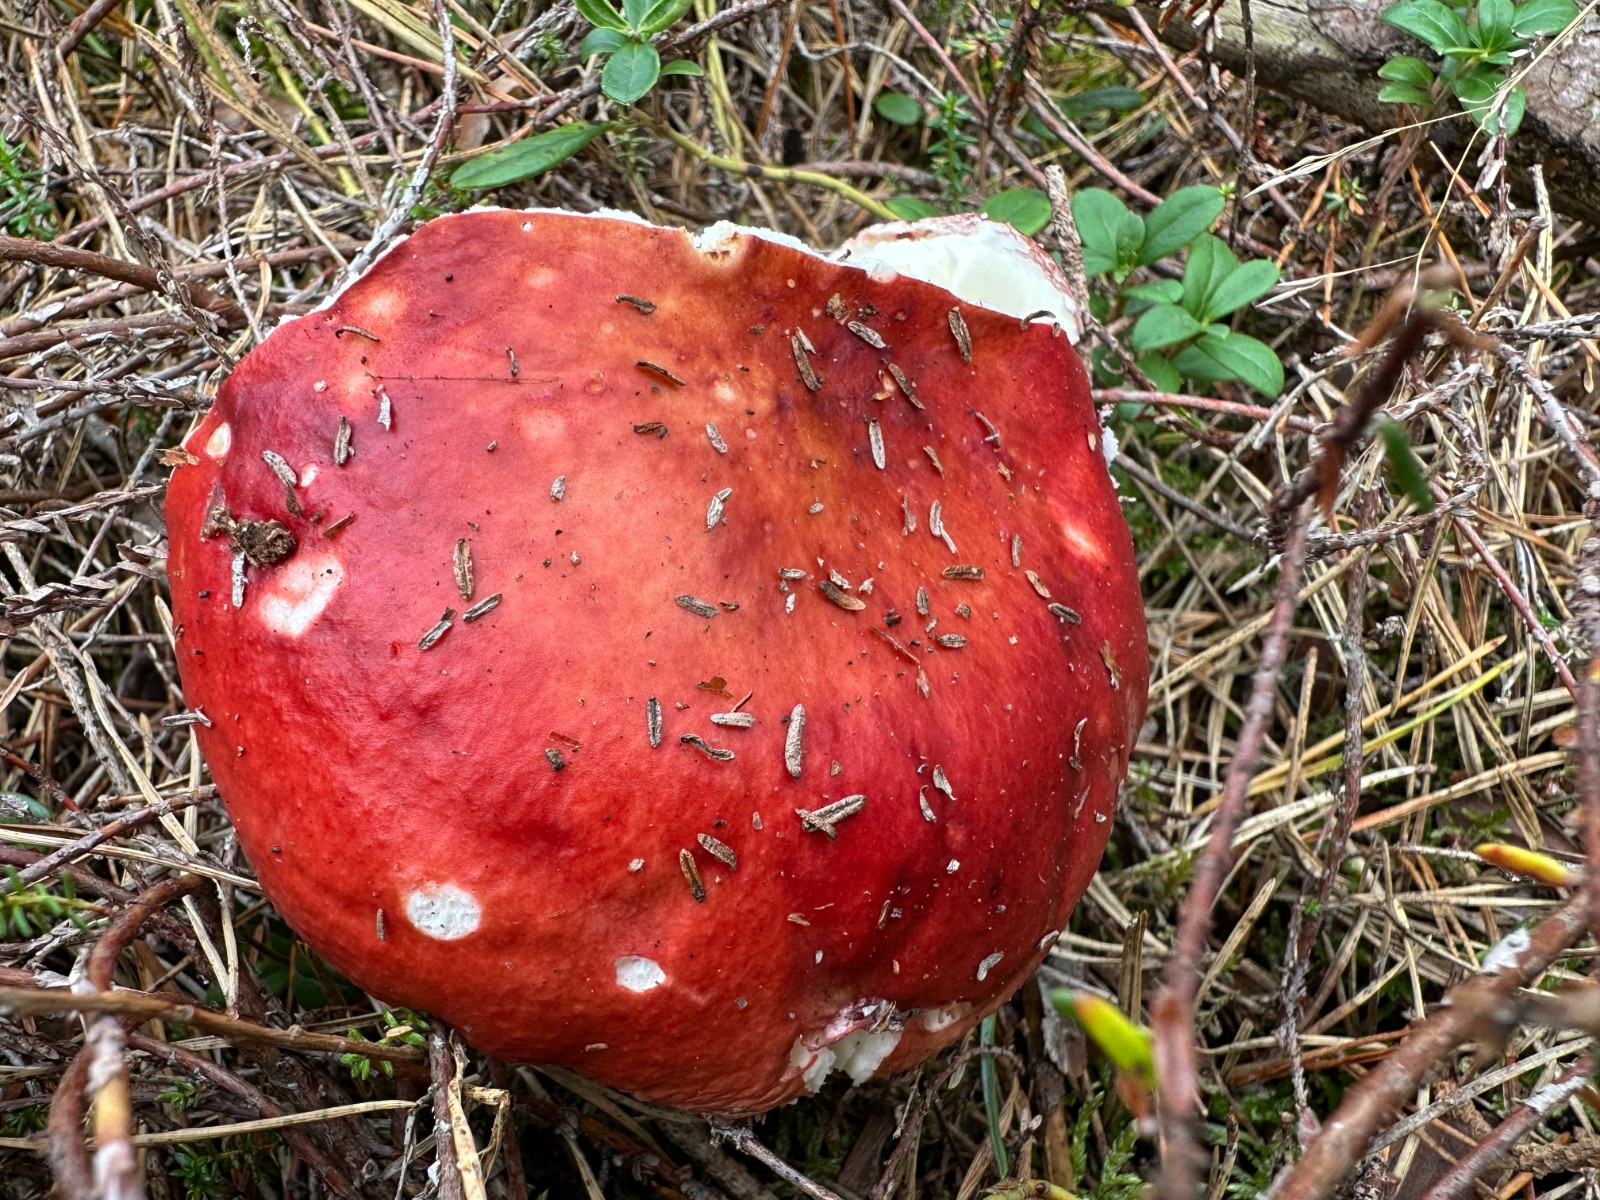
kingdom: Fungi
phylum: Basidiomycota
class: Agaricomycetes
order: Russulales
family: Russulaceae
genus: Russula
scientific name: Russula paludosa
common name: prægtig skørhat
